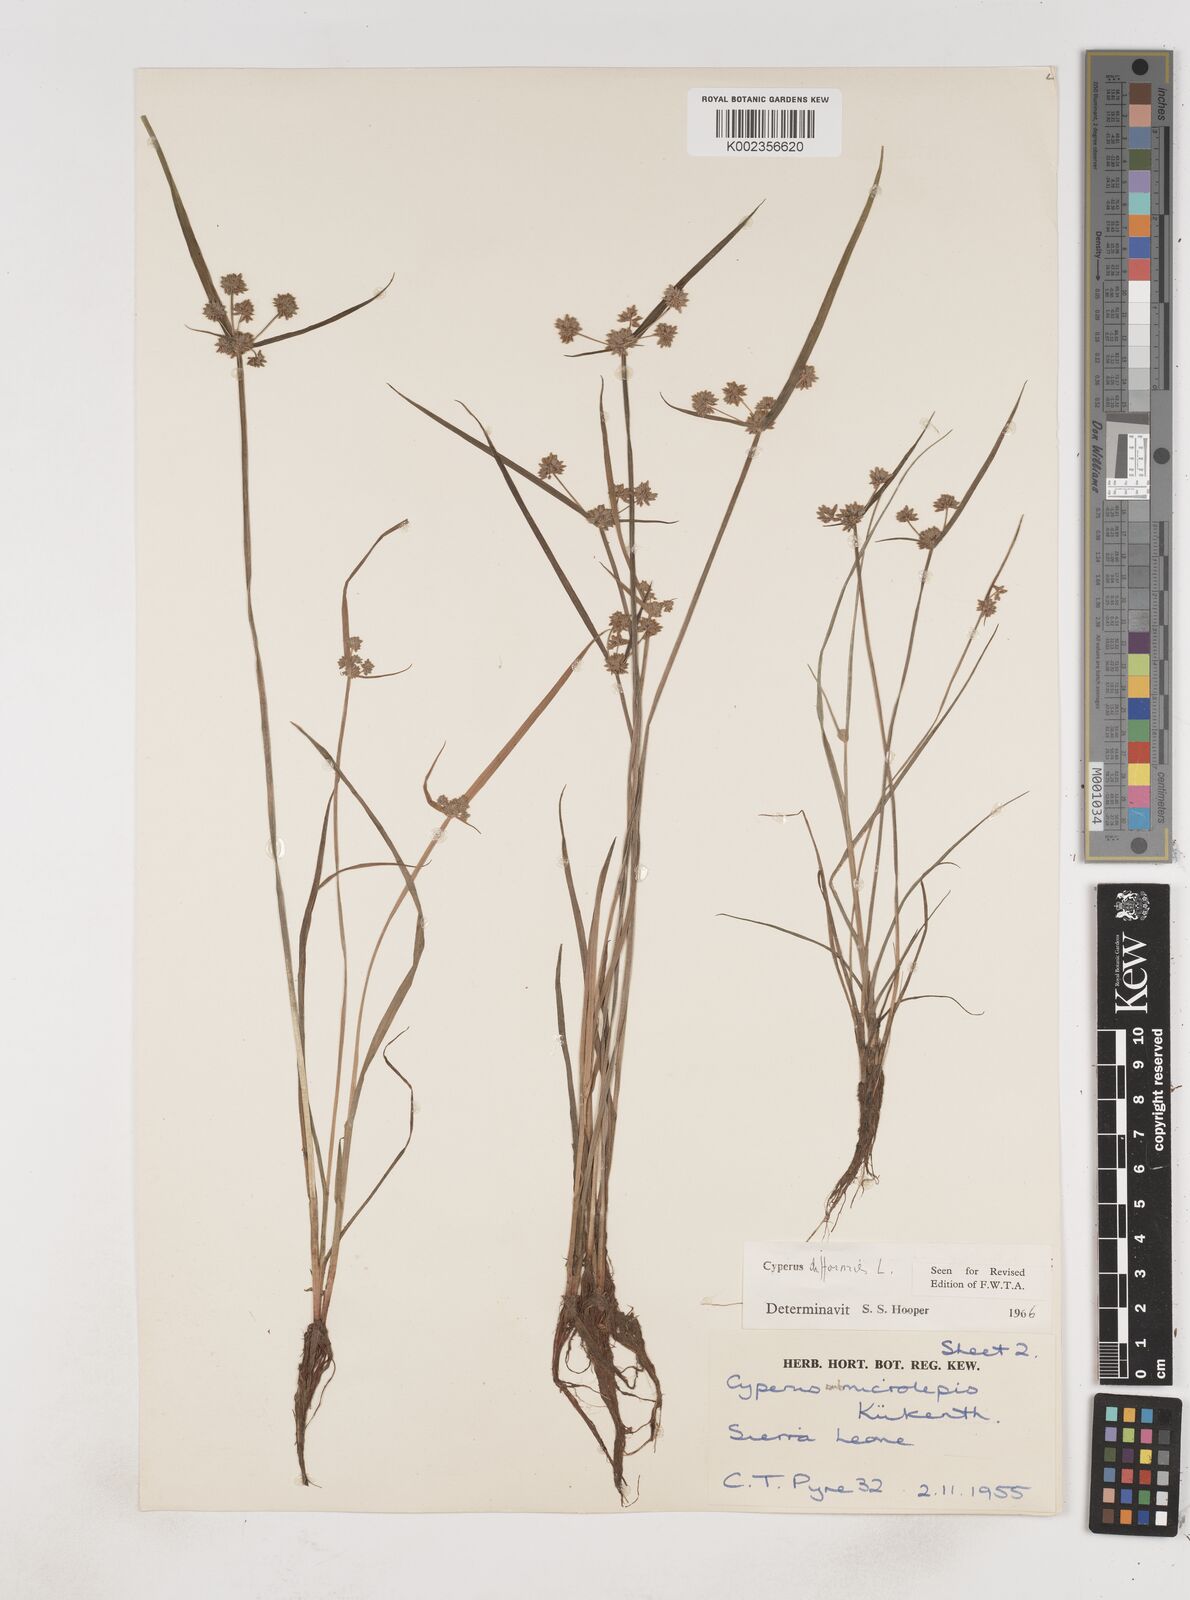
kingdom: Plantae
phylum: Tracheophyta
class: Liliopsida
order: Poales
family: Cyperaceae
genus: Cyperus
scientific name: Cyperus difformis
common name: Variable flatsedge
